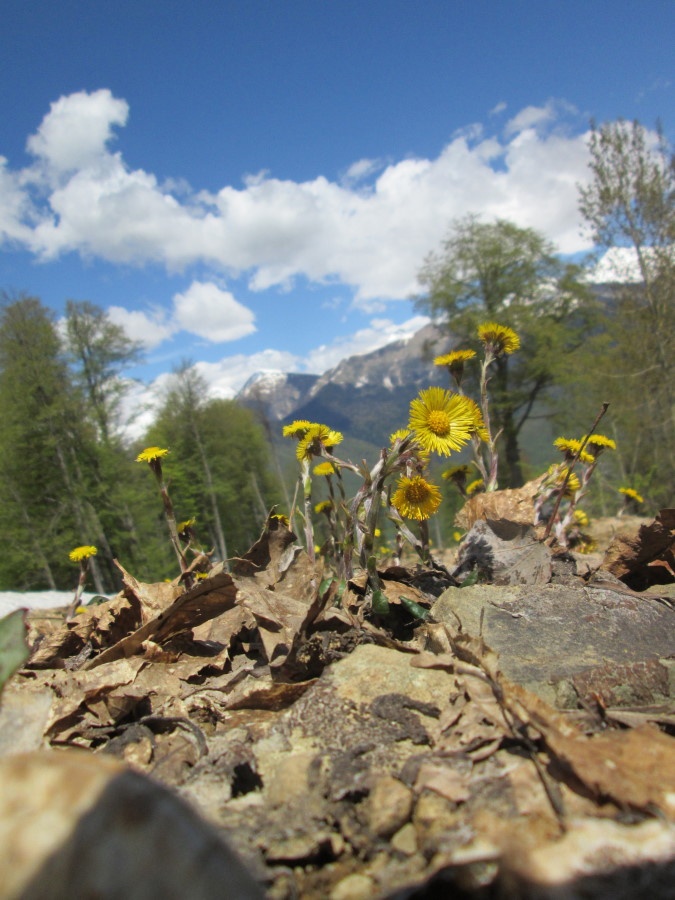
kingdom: Plantae
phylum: Tracheophyta
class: Magnoliopsida
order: Asterales
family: Asteraceae
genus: Tussilago
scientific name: Tussilago farfara
